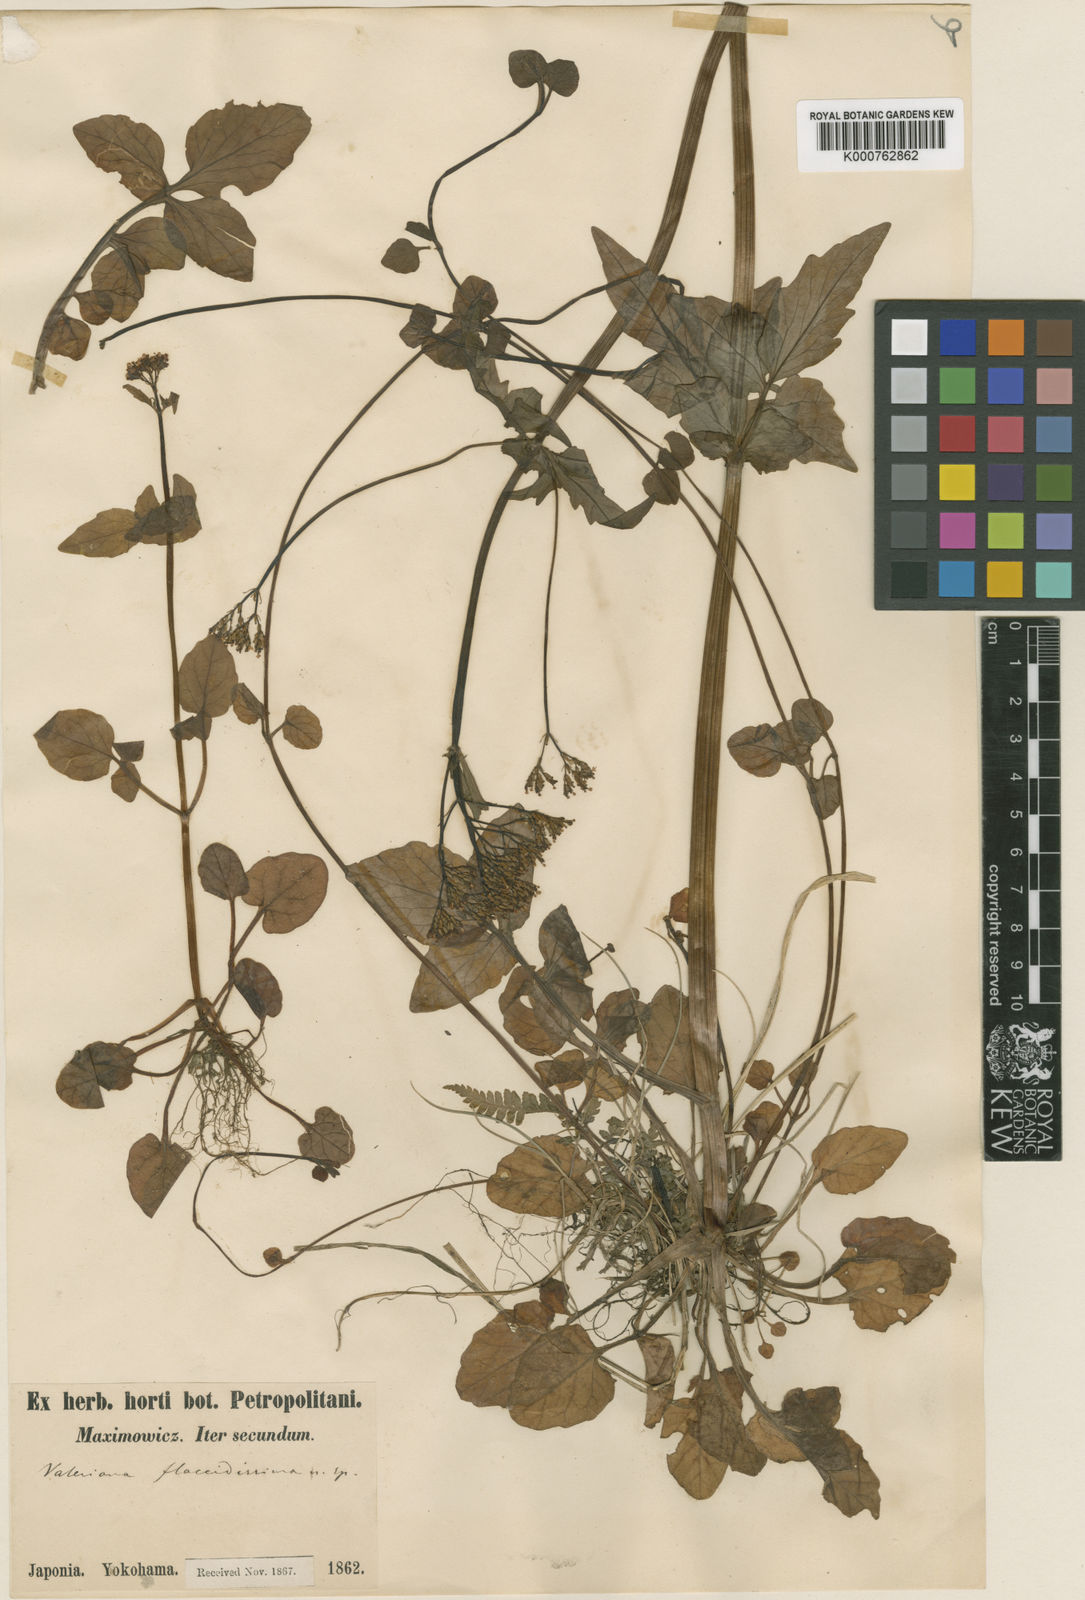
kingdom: Plantae
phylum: Tracheophyta
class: Magnoliopsida
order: Dipsacales
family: Caprifoliaceae
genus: Valeriana
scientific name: Valeriana flaccidissima
